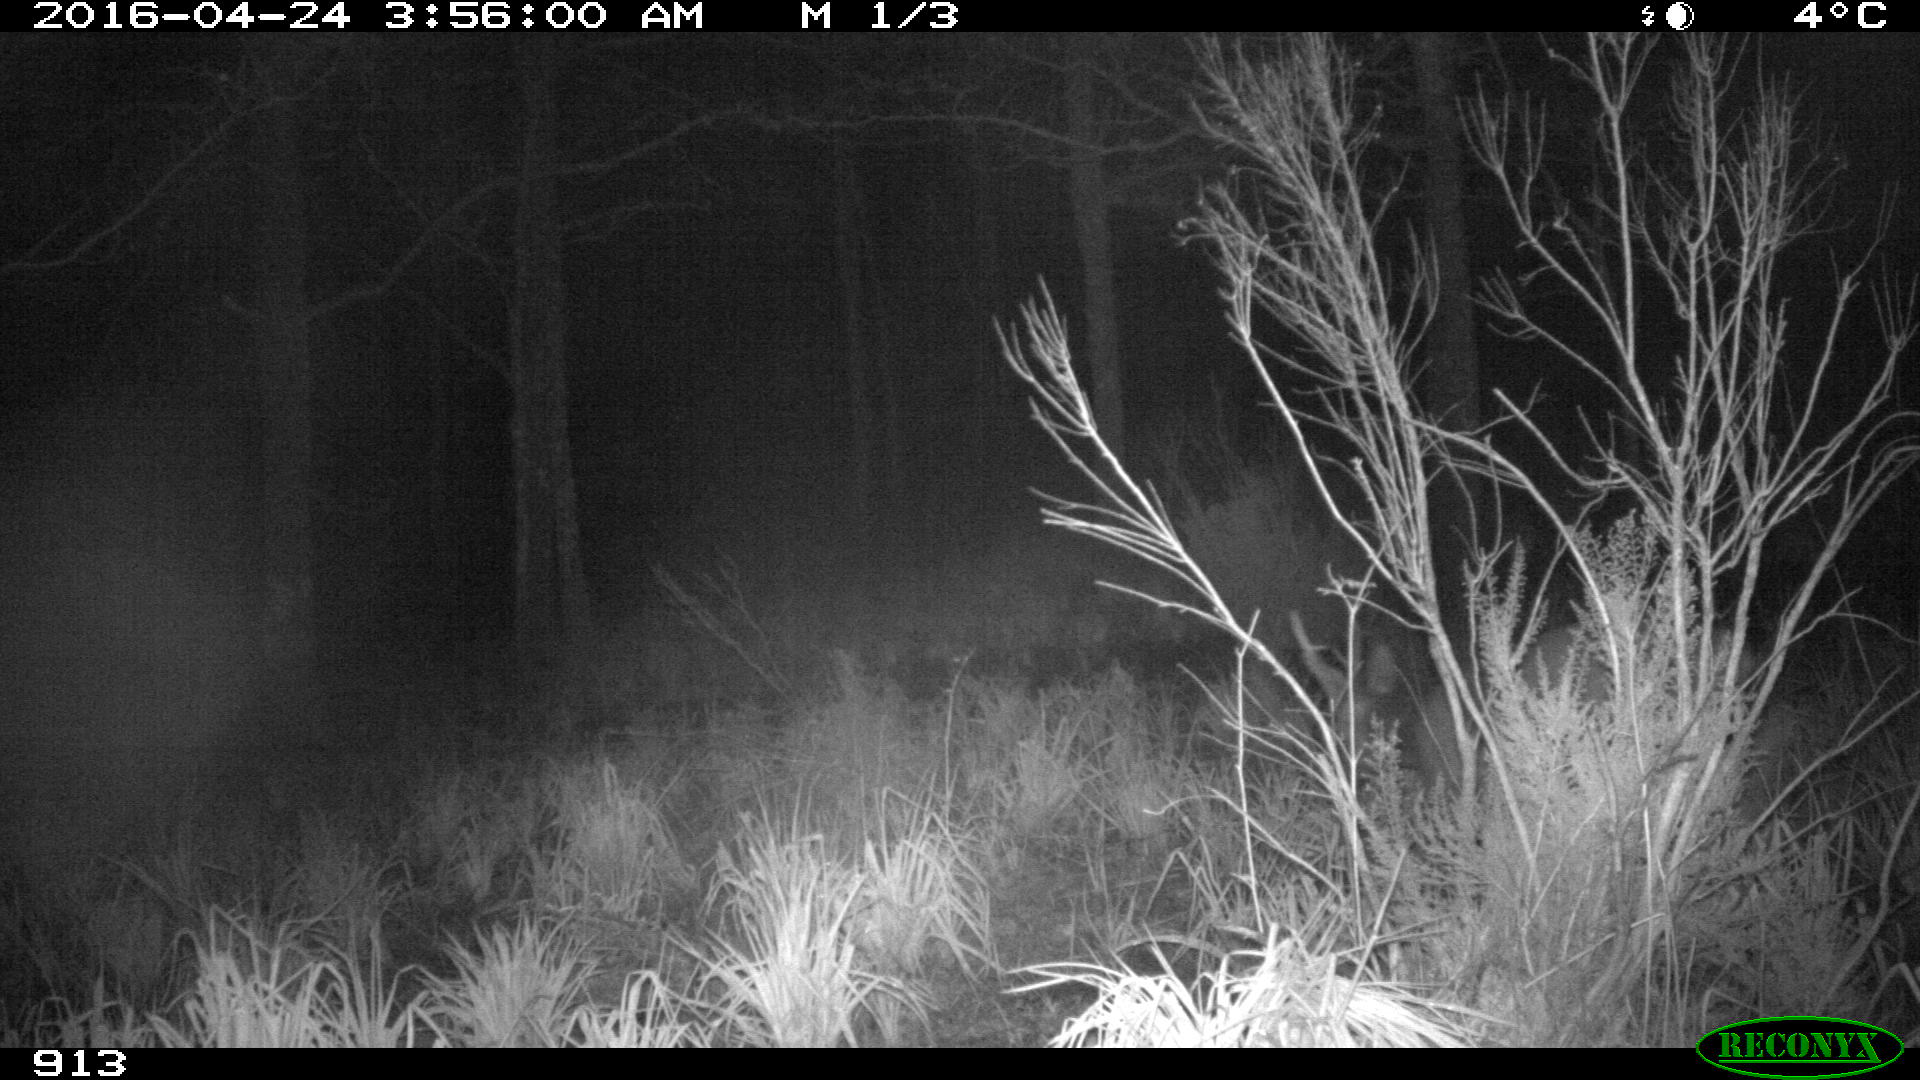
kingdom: Animalia
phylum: Chordata
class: Mammalia
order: Artiodactyla
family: Cervidae
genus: Capreolus
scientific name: Capreolus capreolus
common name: Western roe deer
